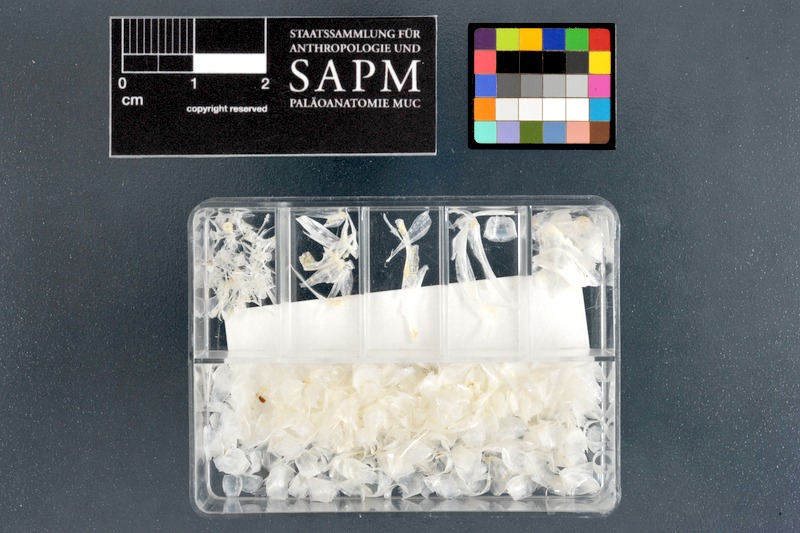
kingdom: Animalia
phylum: Chordata
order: Atheriniformes
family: Atherinidae
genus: Atherinomorus
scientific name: Atherinomorus lacunosus
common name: Hardyhead silverside
